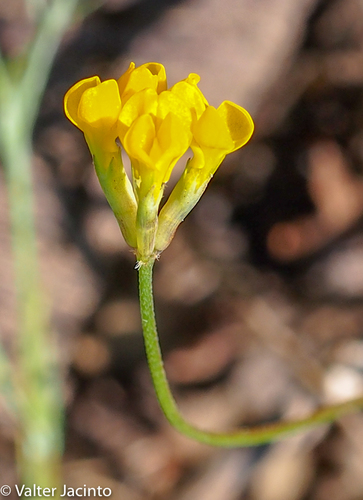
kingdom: Plantae
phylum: Tracheophyta
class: Magnoliopsida
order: Fabales
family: Fabaceae
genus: Ornithopus
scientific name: Ornithopus pinnatus
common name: Orange bird's-foot
